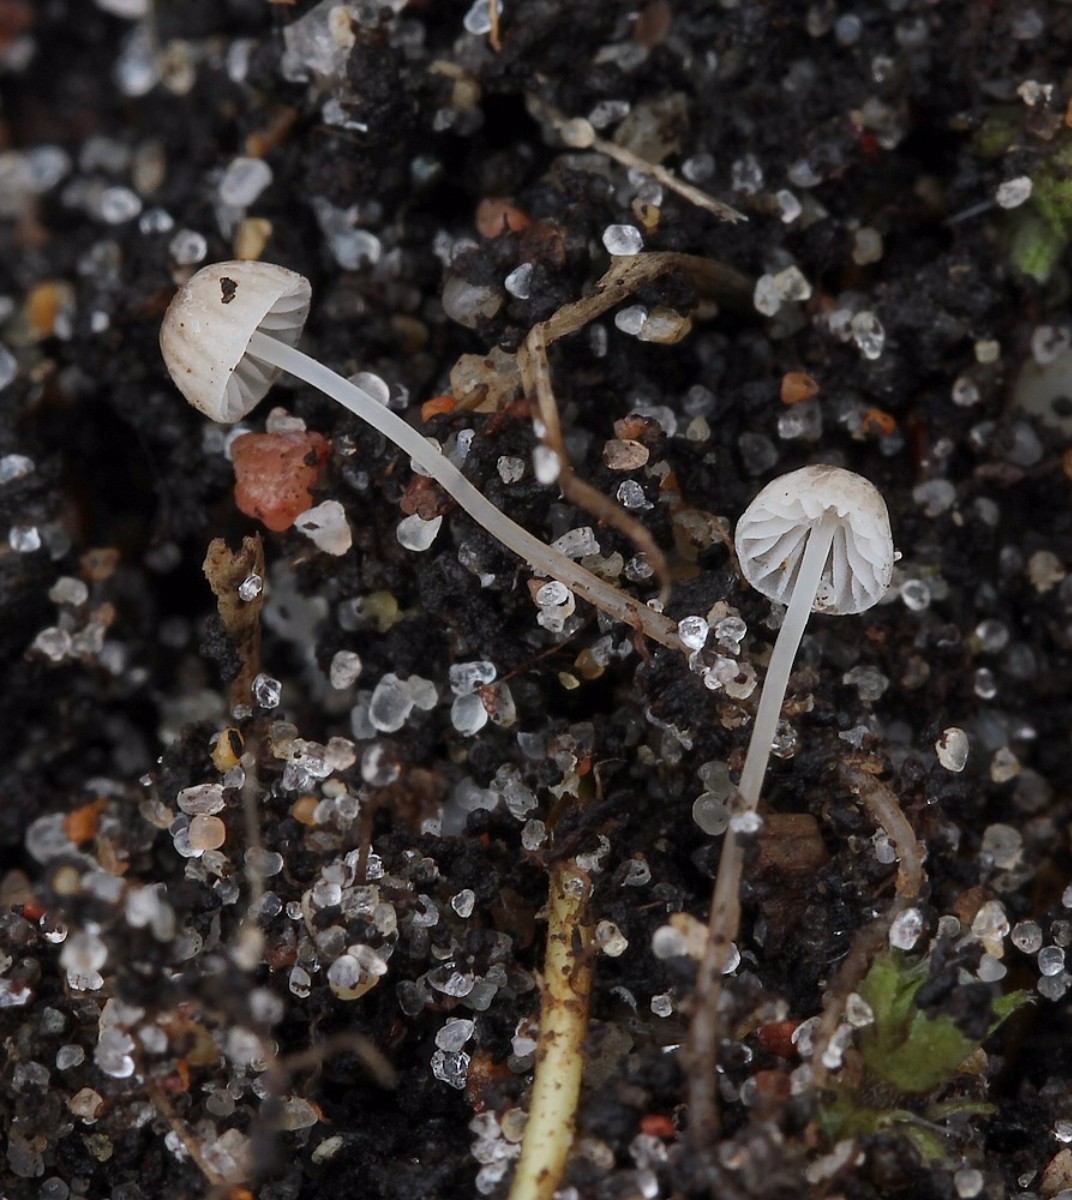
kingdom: Fungi
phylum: Basidiomycota
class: Agaricomycetes
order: Agaricales
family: Porotheleaceae
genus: Phloeomana
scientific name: Phloeomana hiemalis
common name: sen huesvamp
